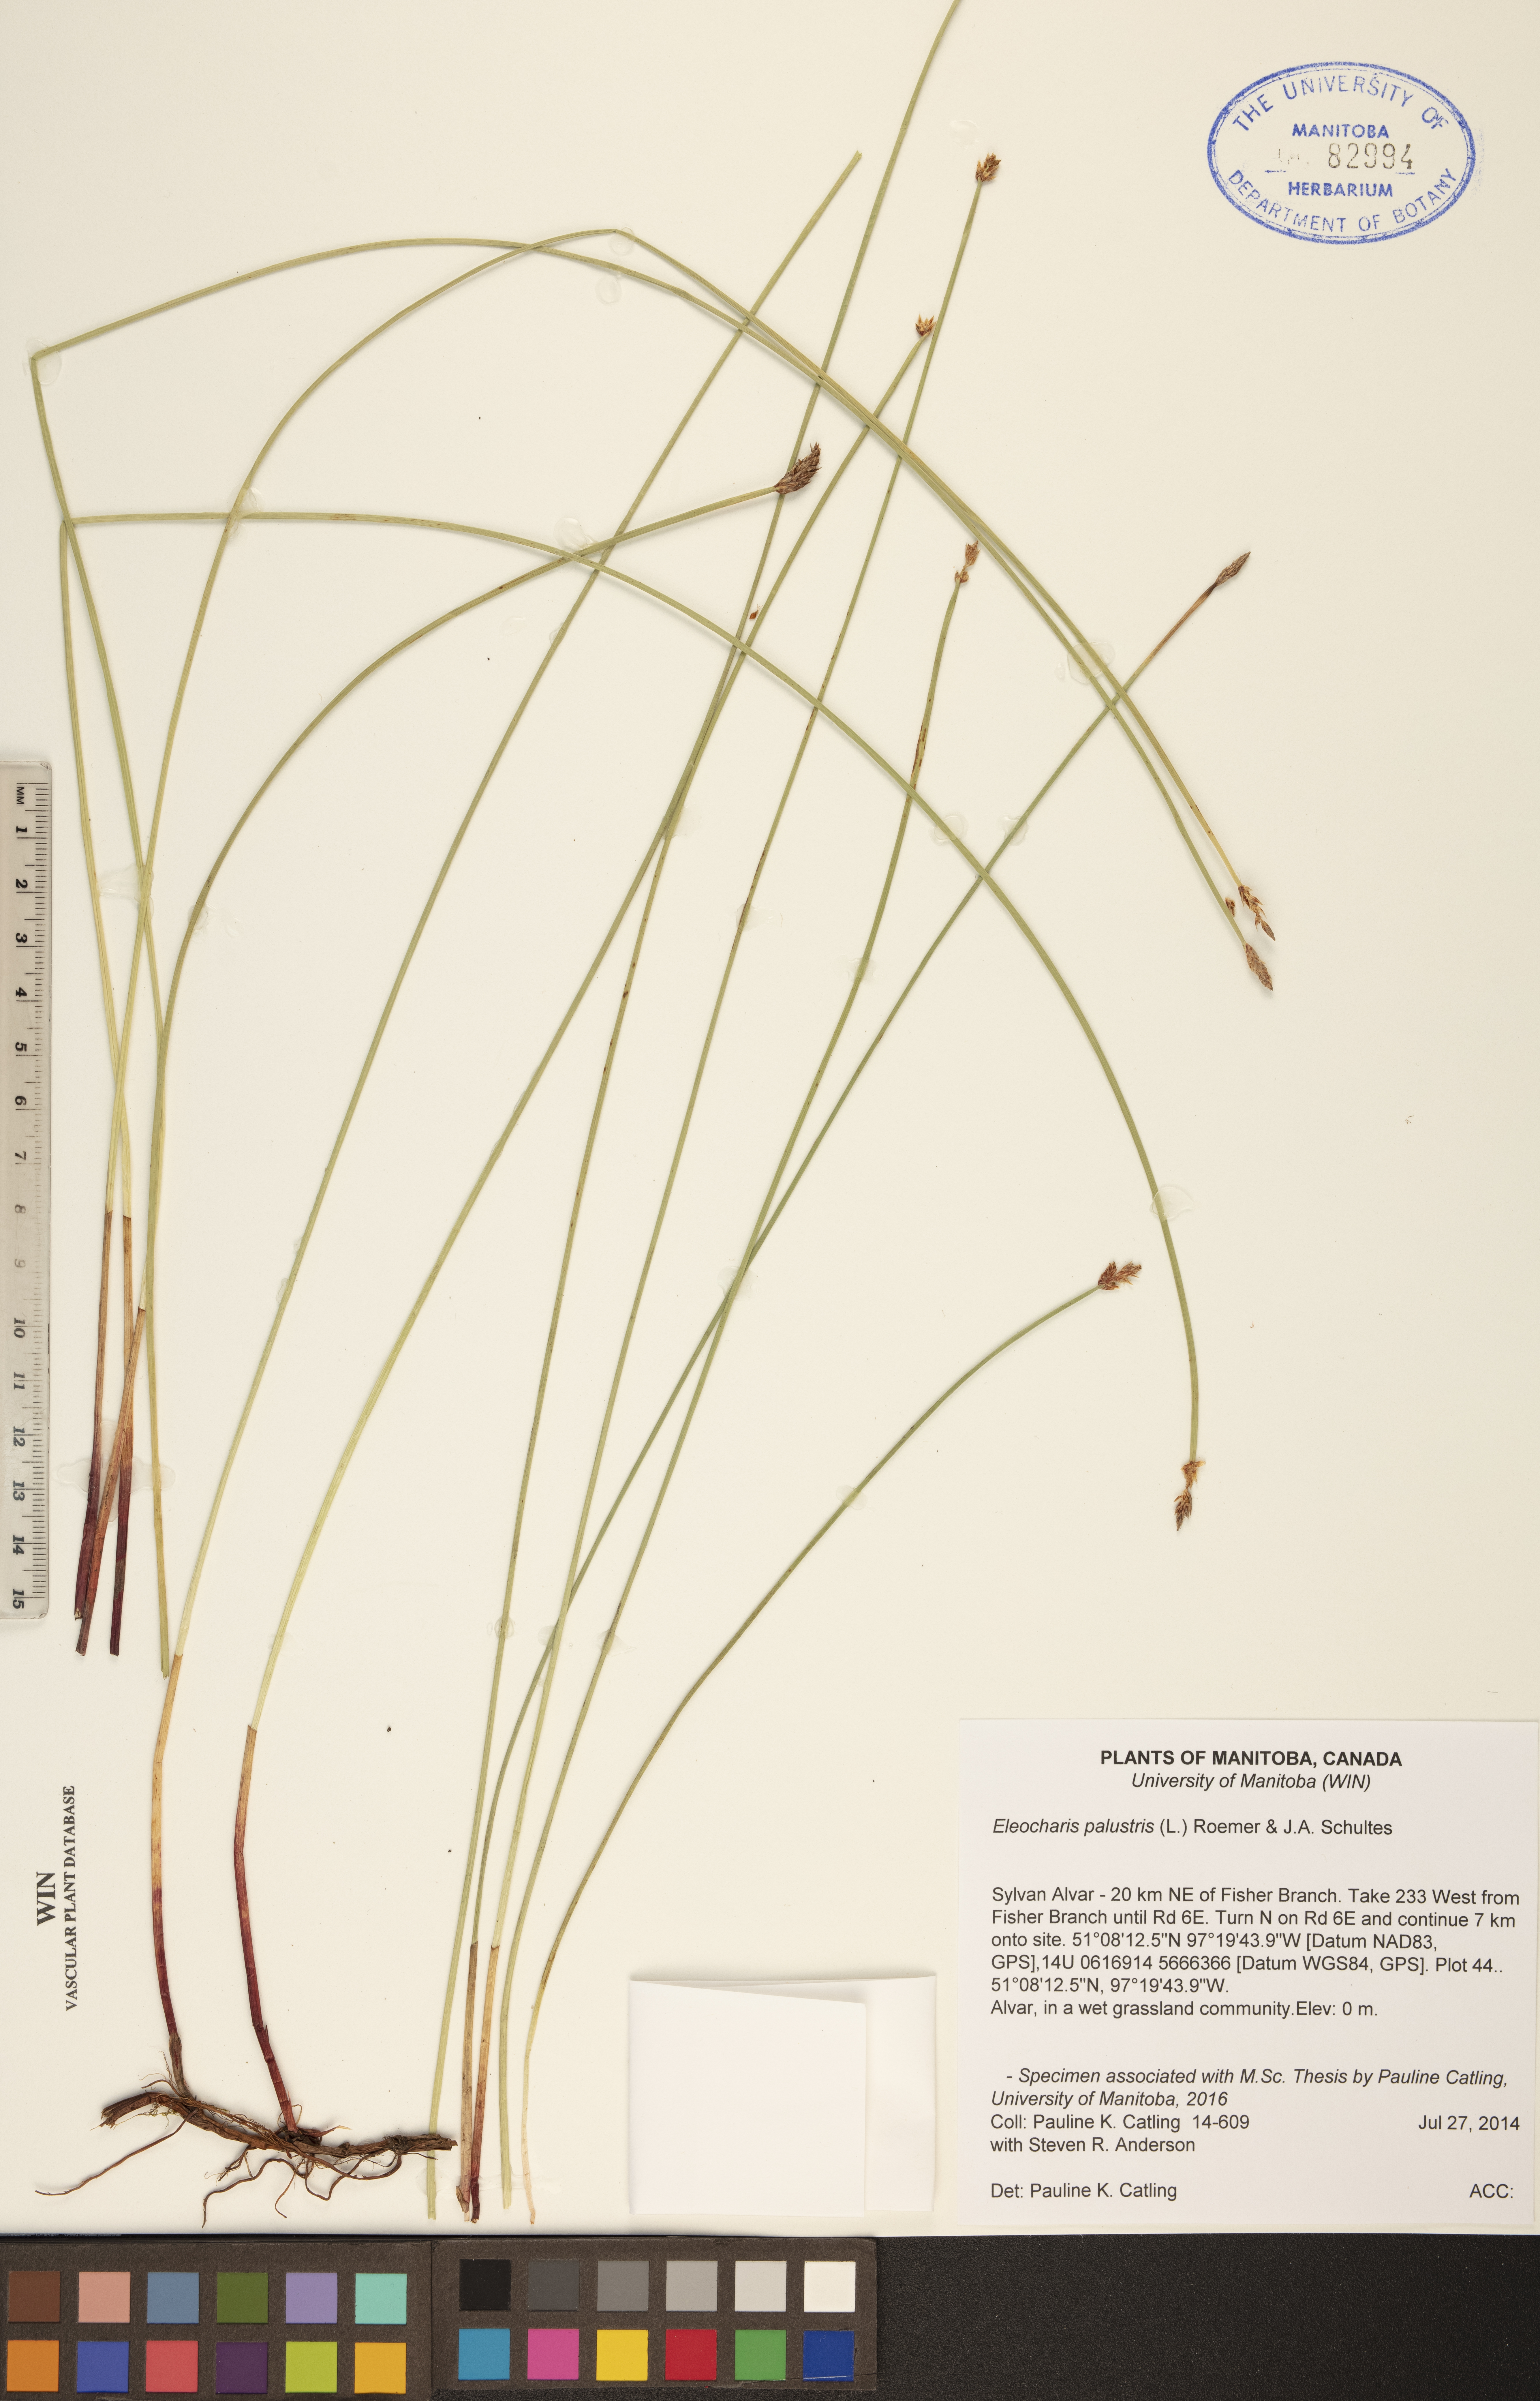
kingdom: Plantae
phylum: Tracheophyta
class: Liliopsida
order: Poales
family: Cyperaceae
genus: Eleocharis
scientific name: Eleocharis palustris
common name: Common spike-rush
